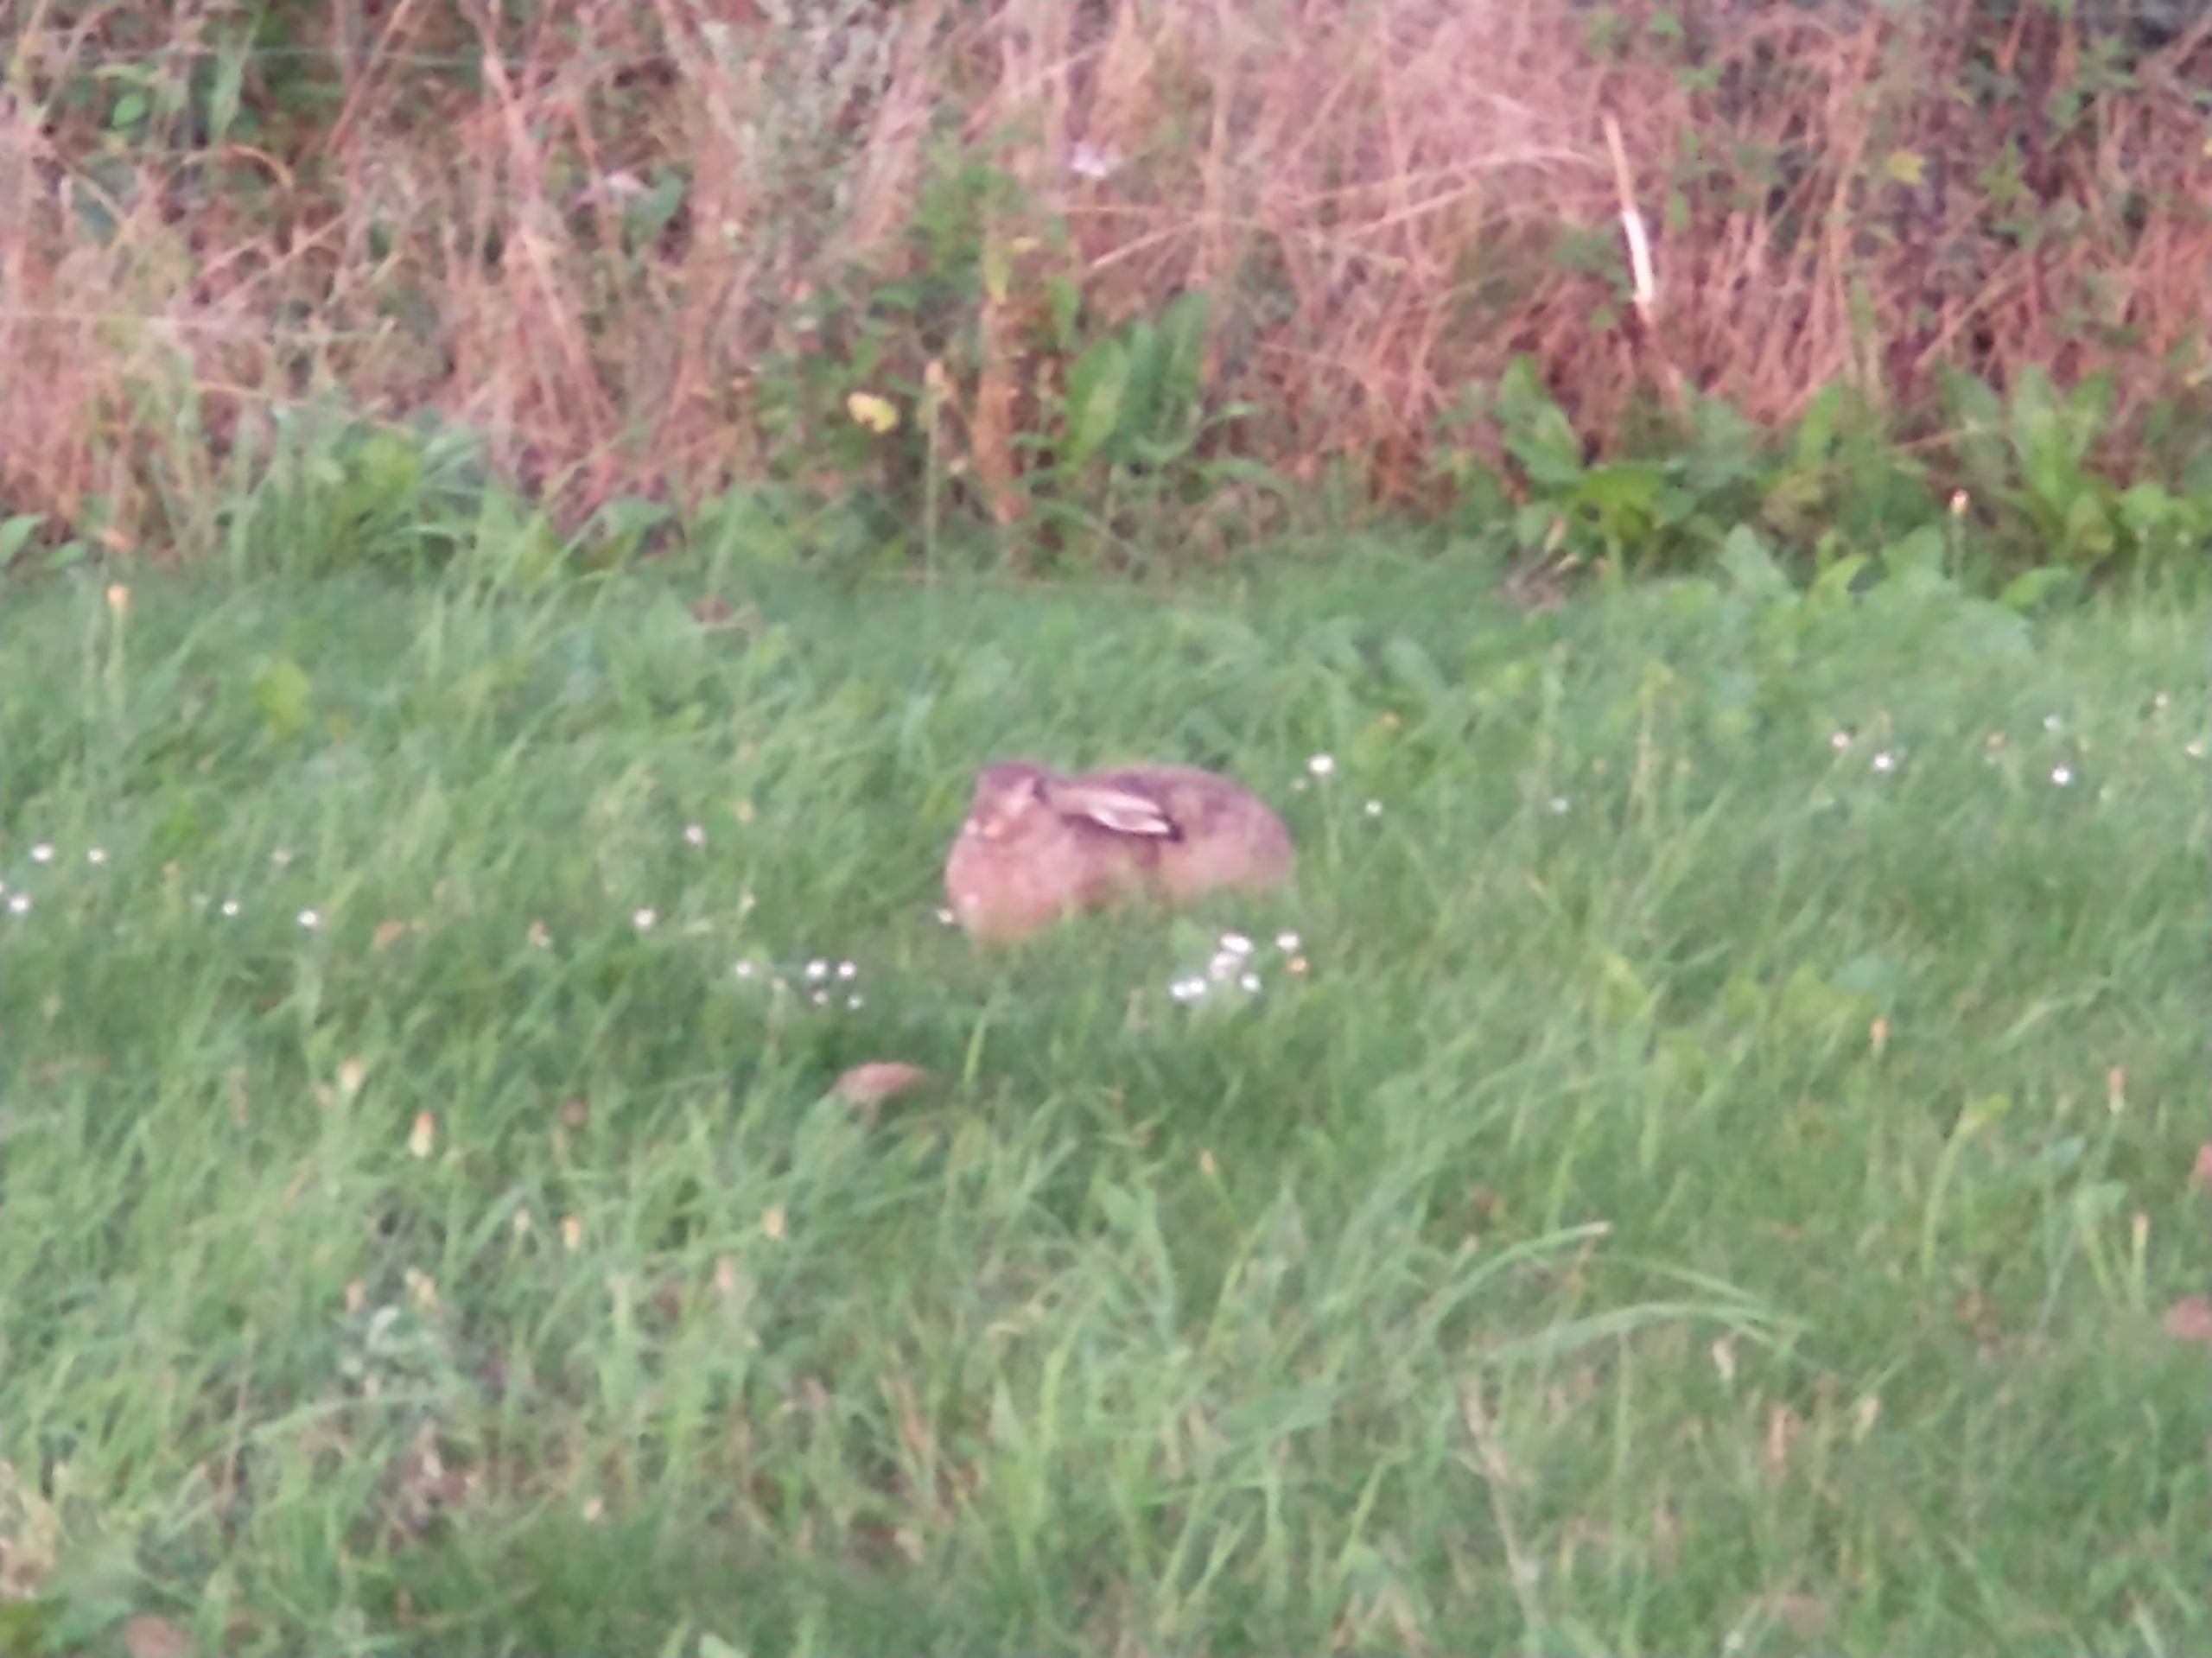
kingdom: Animalia
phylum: Chordata
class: Mammalia
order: Lagomorpha
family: Leporidae
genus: Lepus
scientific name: Lepus europaeus
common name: Hare
